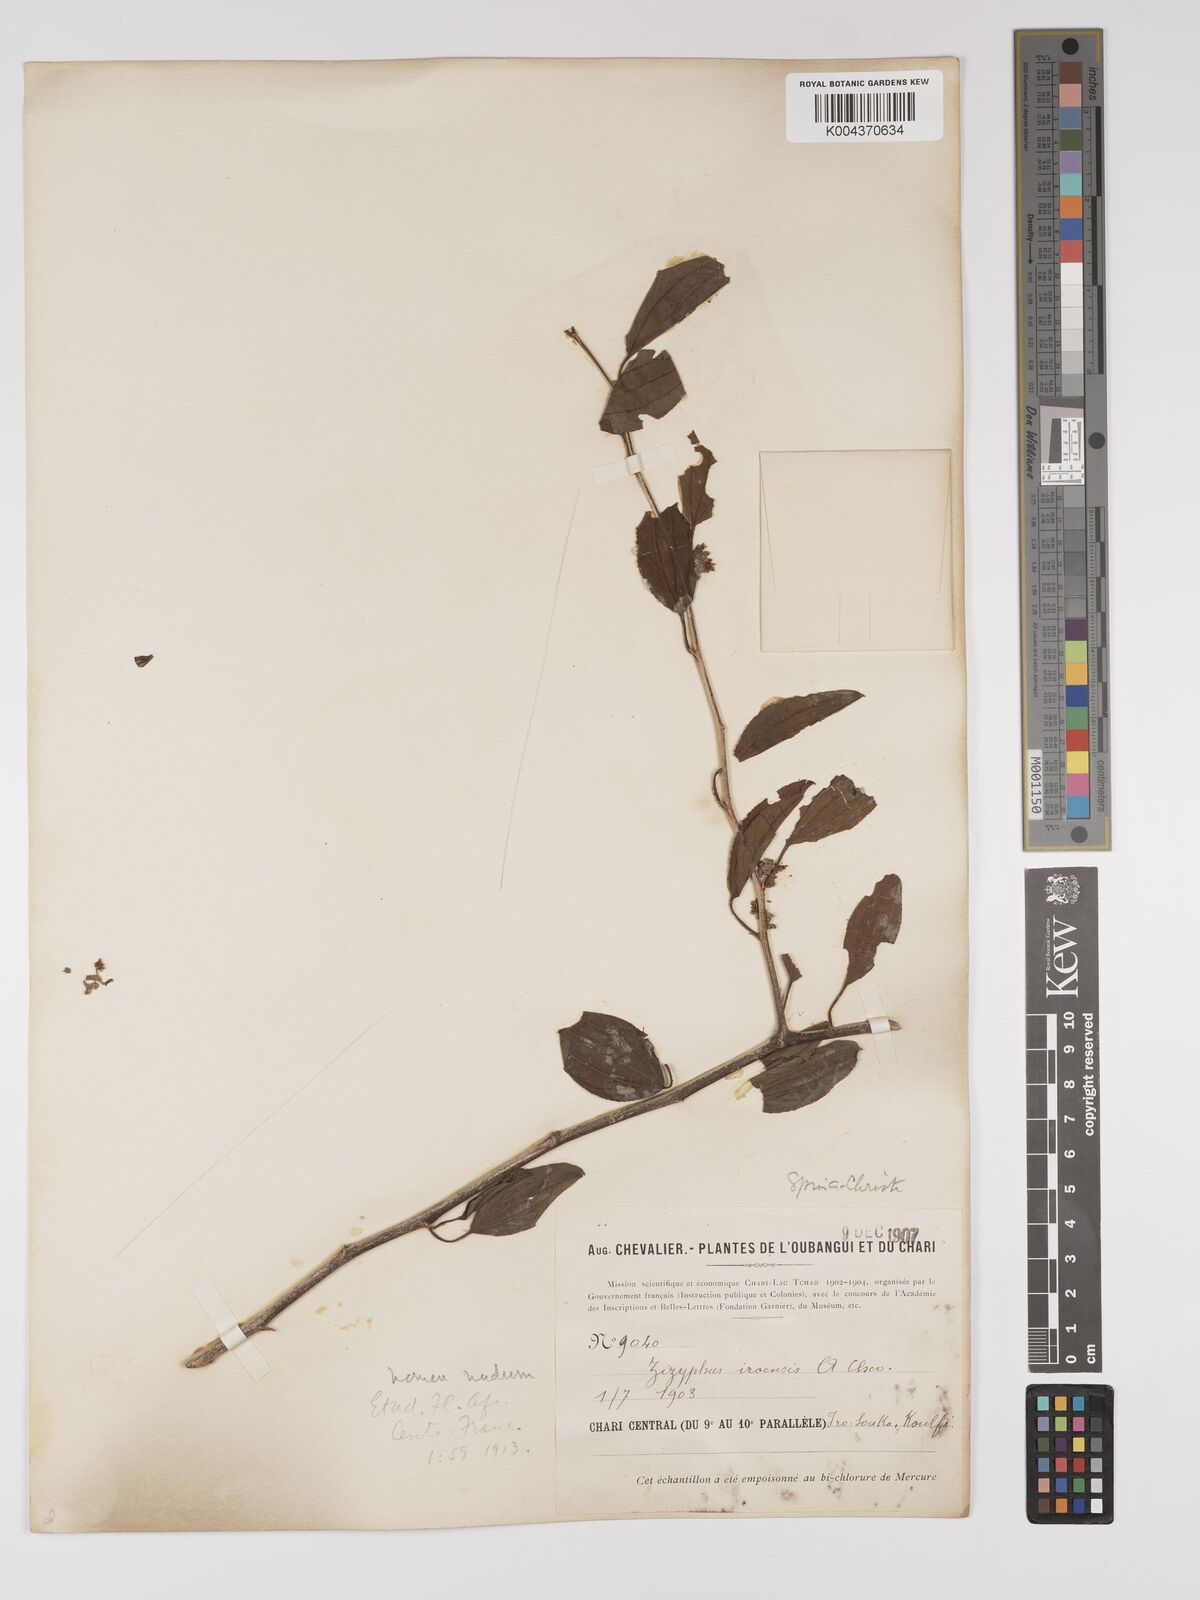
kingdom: Plantae
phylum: Tracheophyta
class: Magnoliopsida
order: Rosales
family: Rhamnaceae
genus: Ziziphus
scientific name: Ziziphus spina-christi
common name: Syrian christ-thorn
